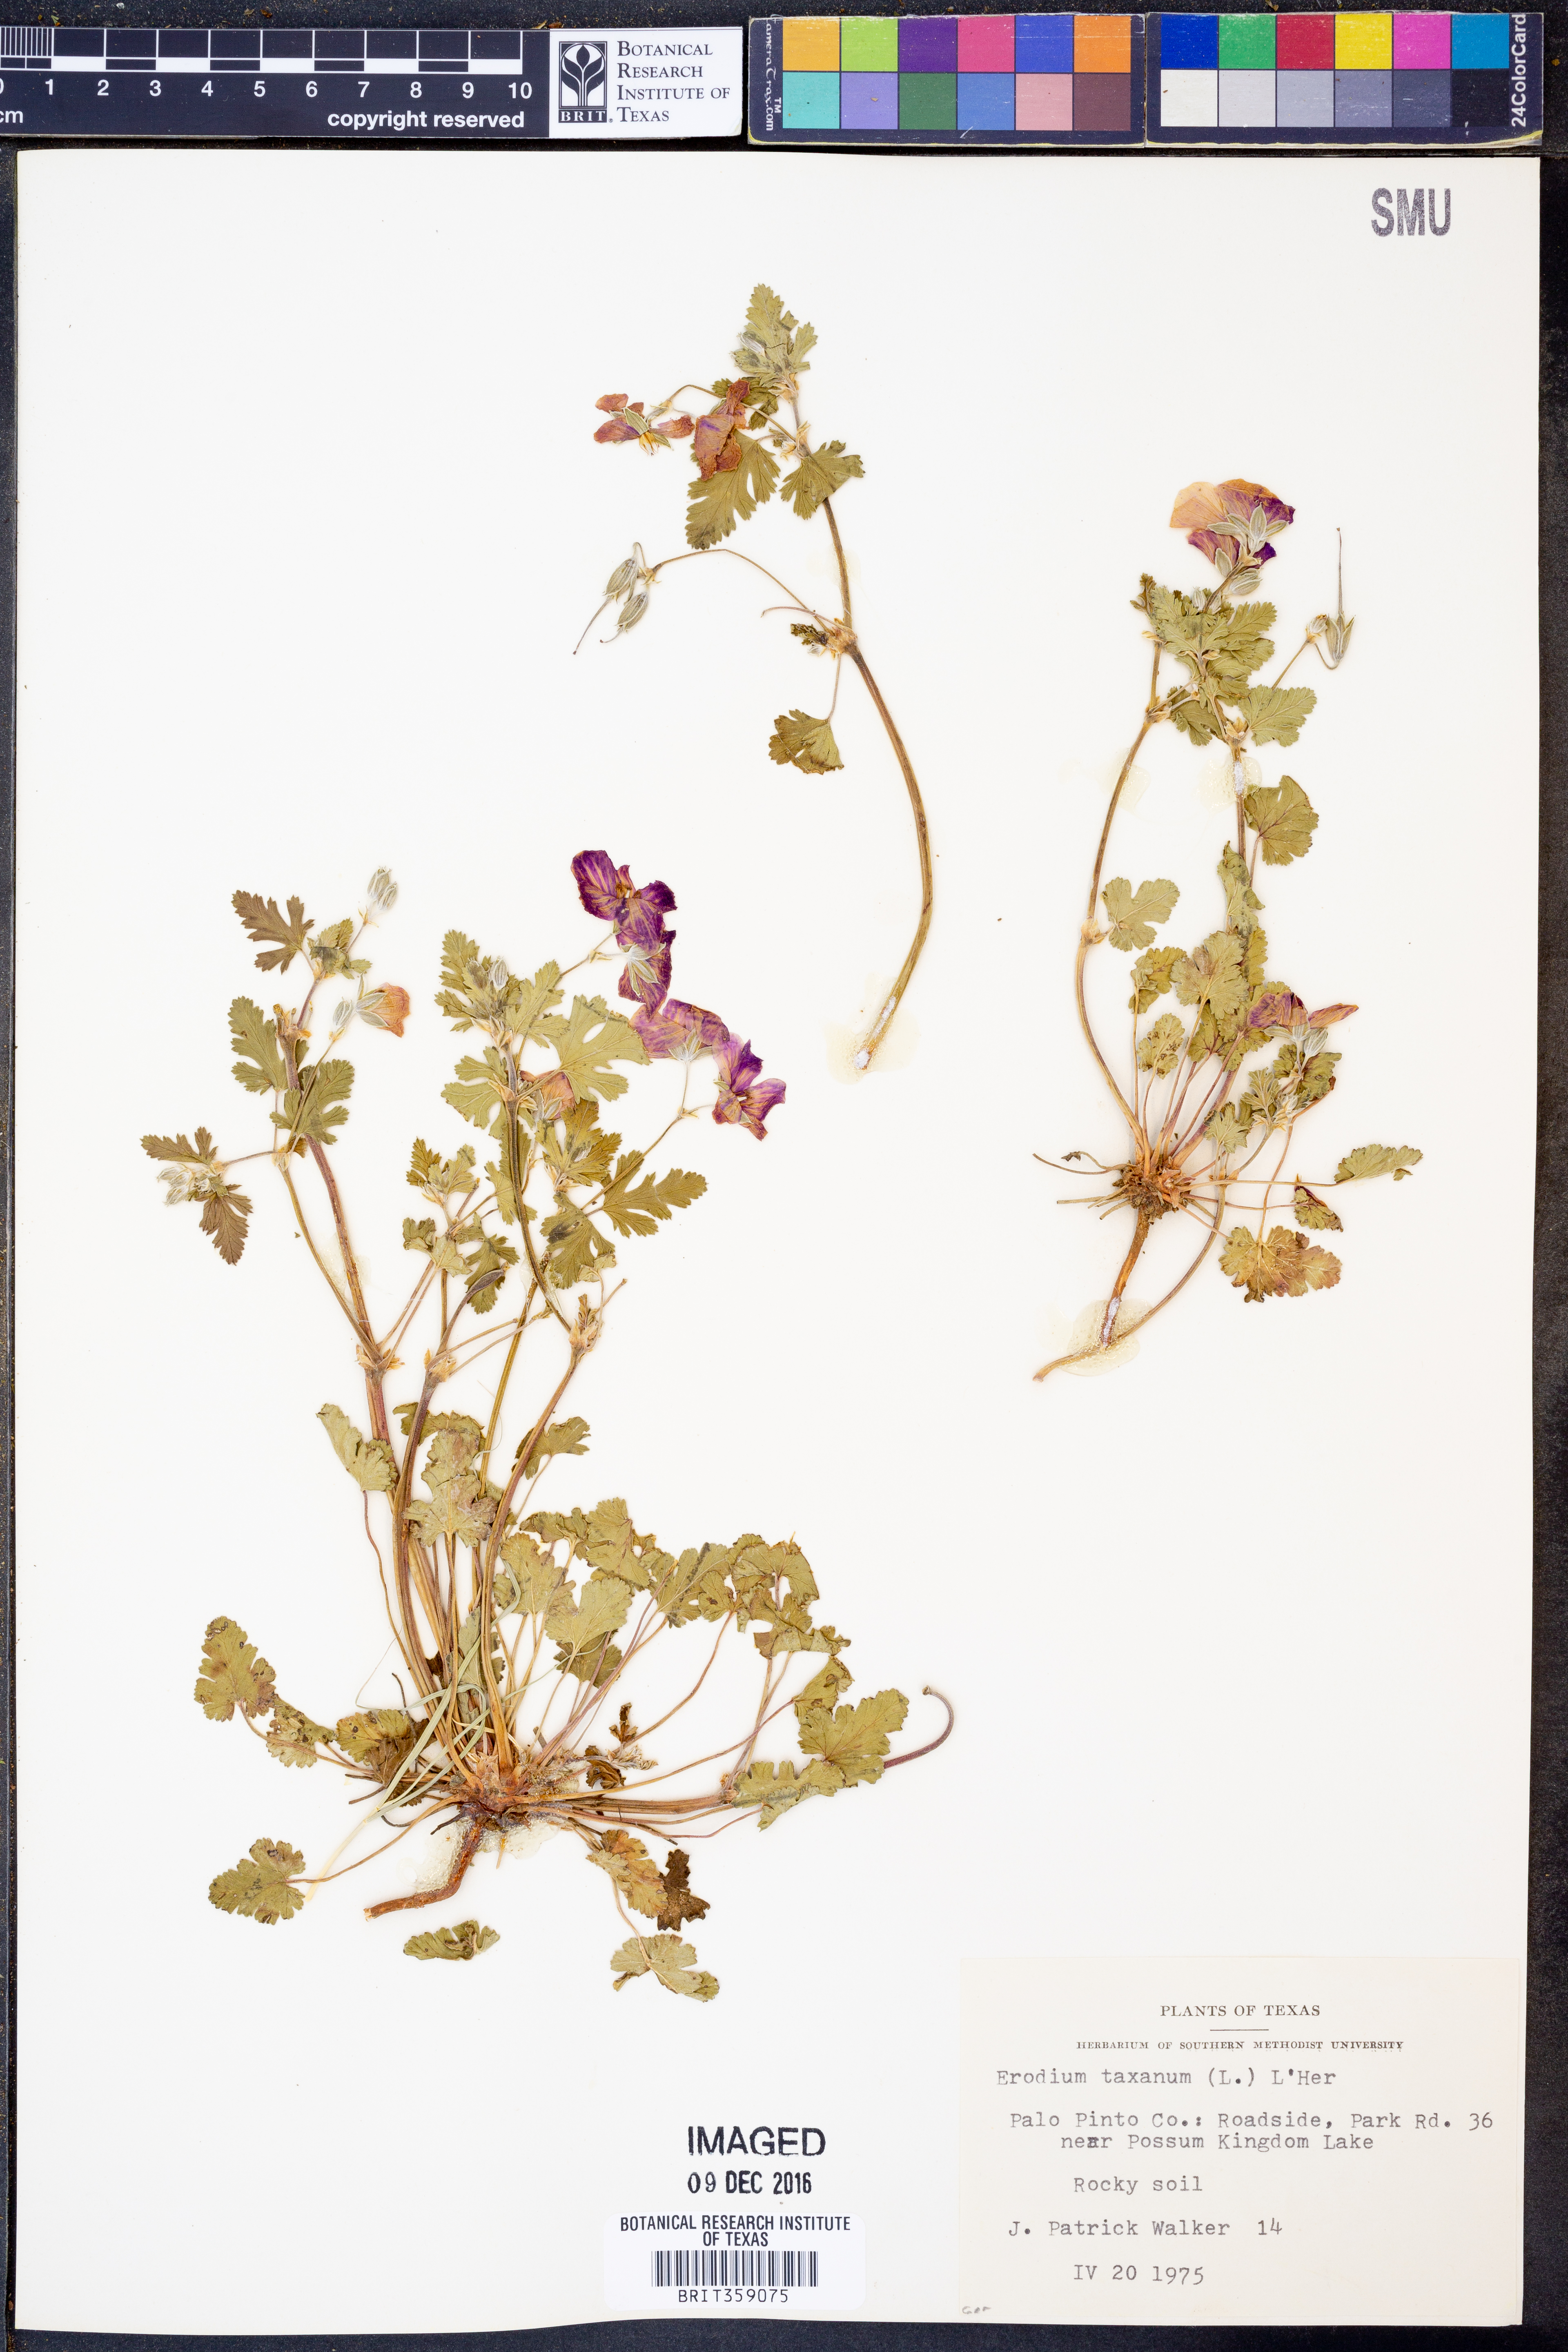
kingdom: Plantae
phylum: Tracheophyta
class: Magnoliopsida
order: Geraniales
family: Geraniaceae
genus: Erodium
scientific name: Erodium texanum
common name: Texas stork's-bill
